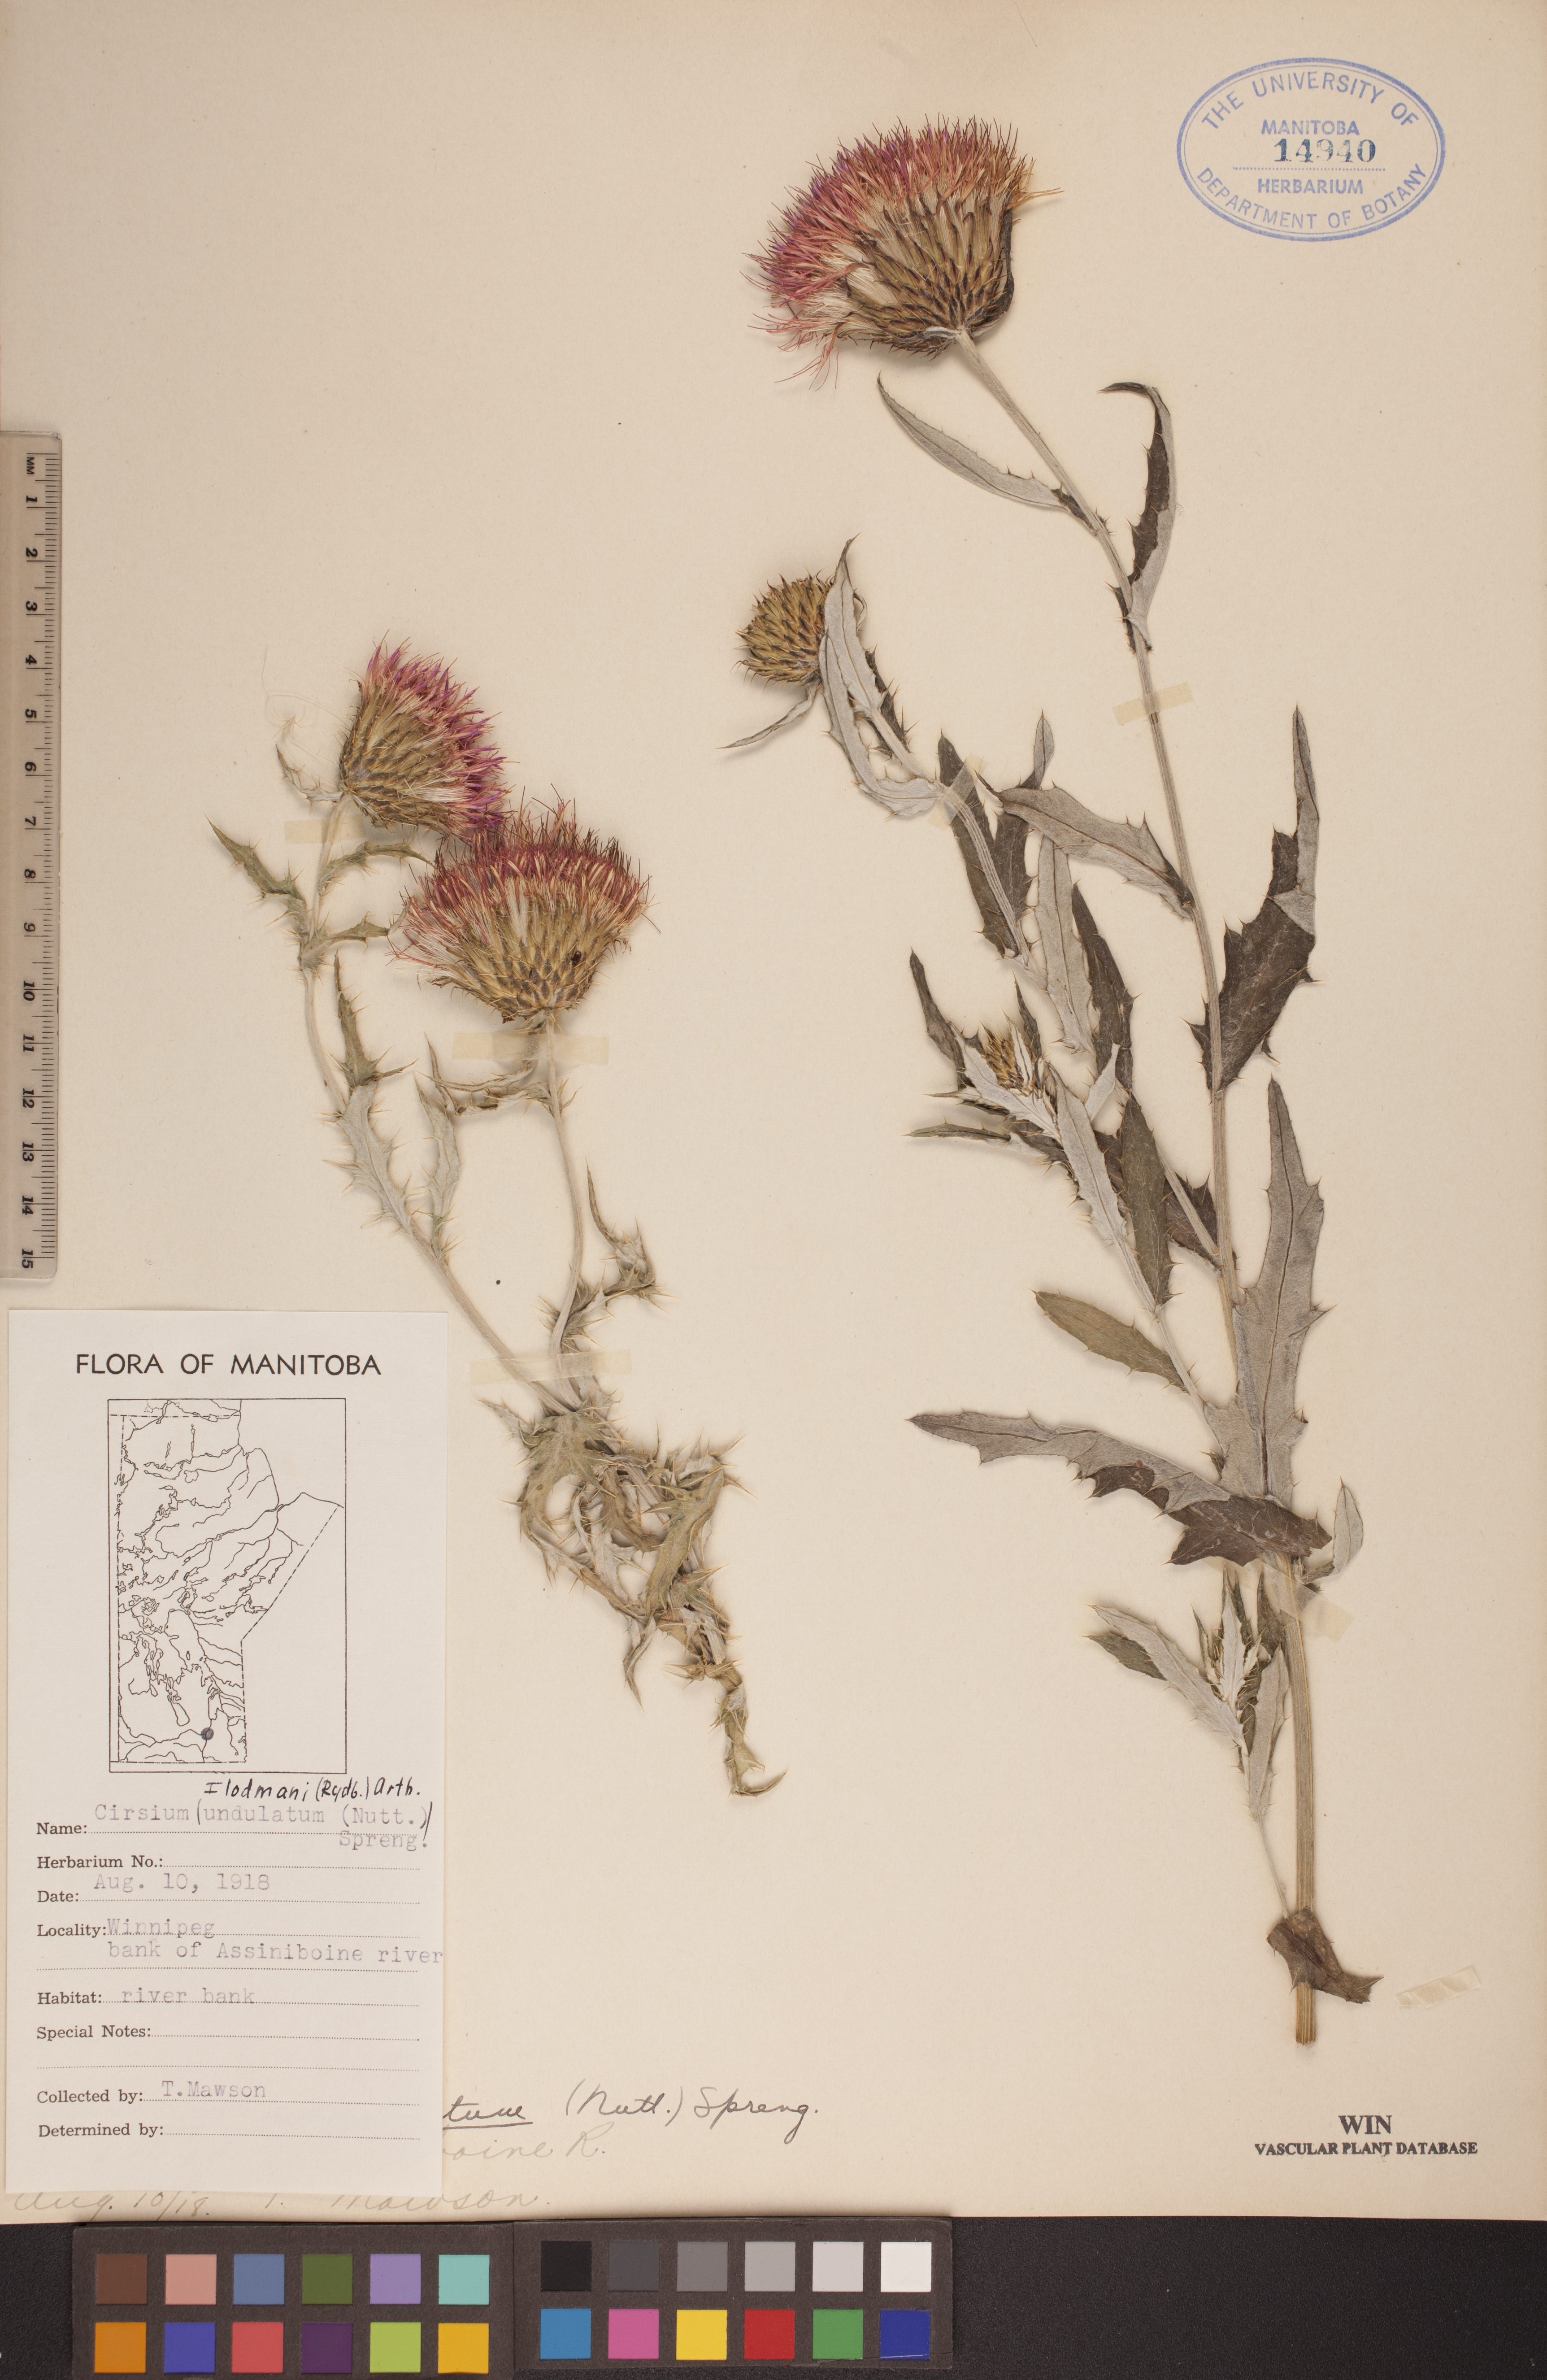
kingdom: Plantae
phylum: Tracheophyta
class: Magnoliopsida
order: Asterales
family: Asteraceae
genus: Cirsium
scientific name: Cirsium flodmanii
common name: Flodman's thistle
